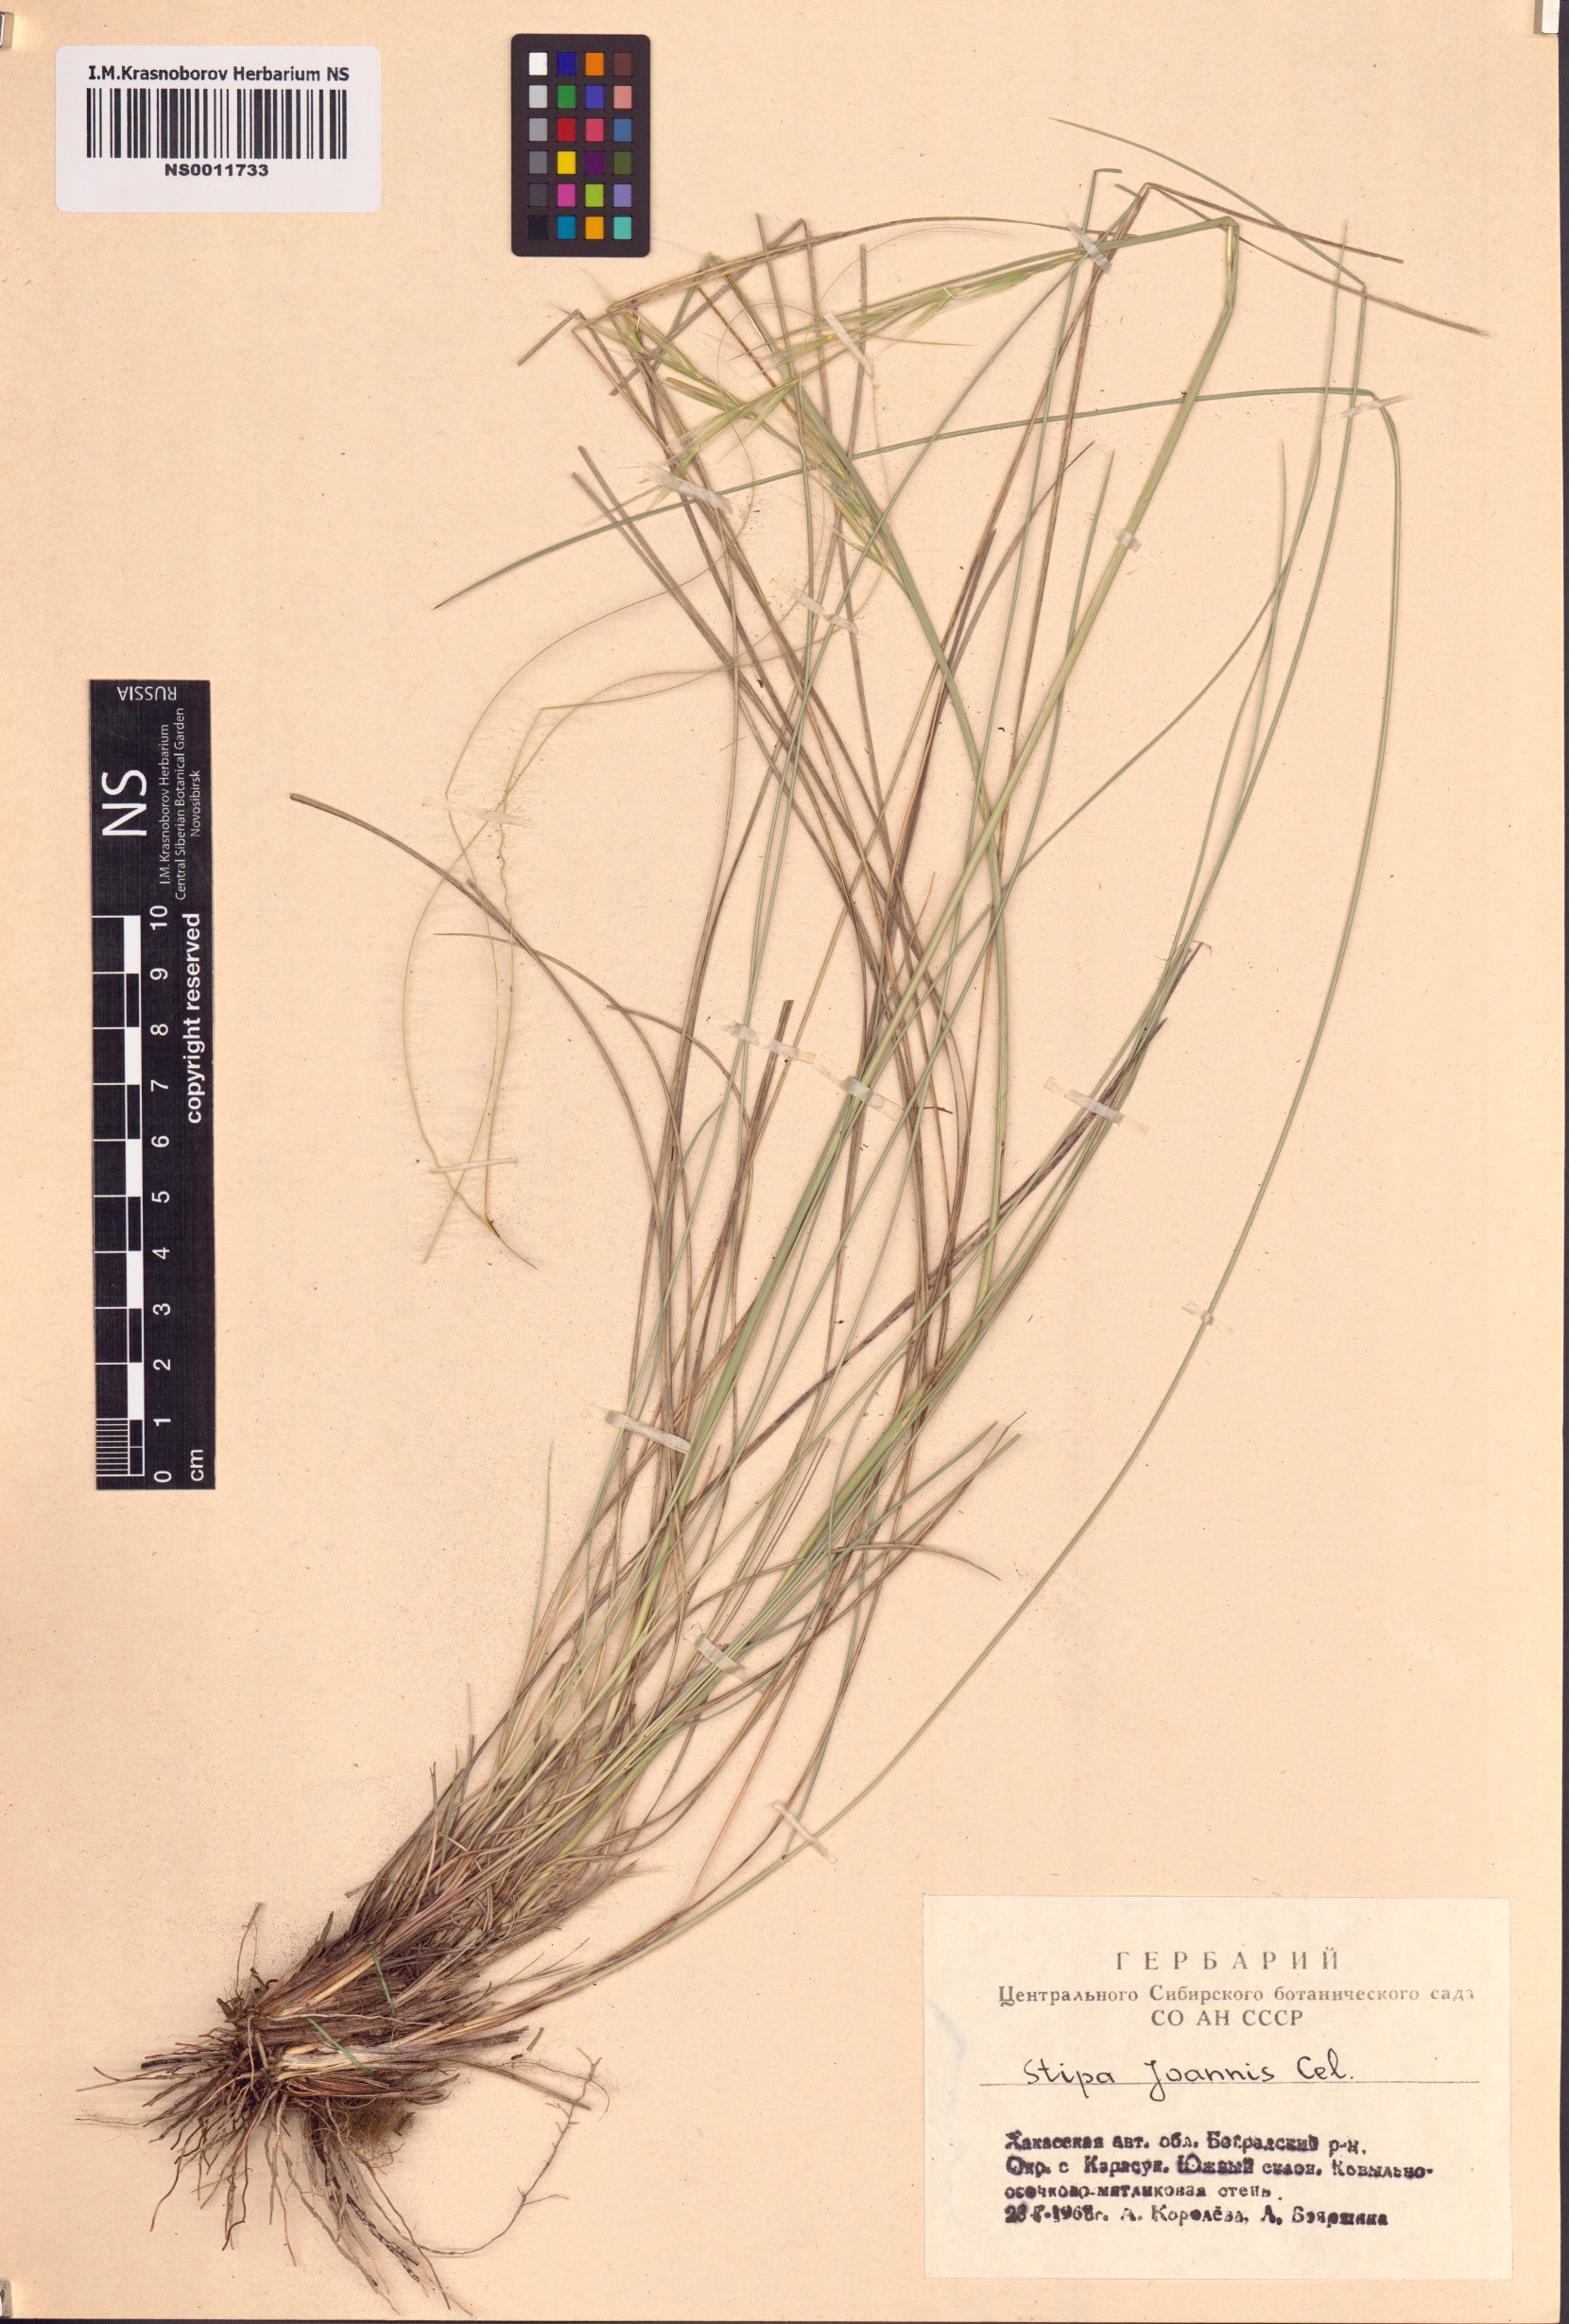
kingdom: Plantae
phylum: Tracheophyta
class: Liliopsida
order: Poales
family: Poaceae
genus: Stipa
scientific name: Stipa pennata
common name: European feather grass
